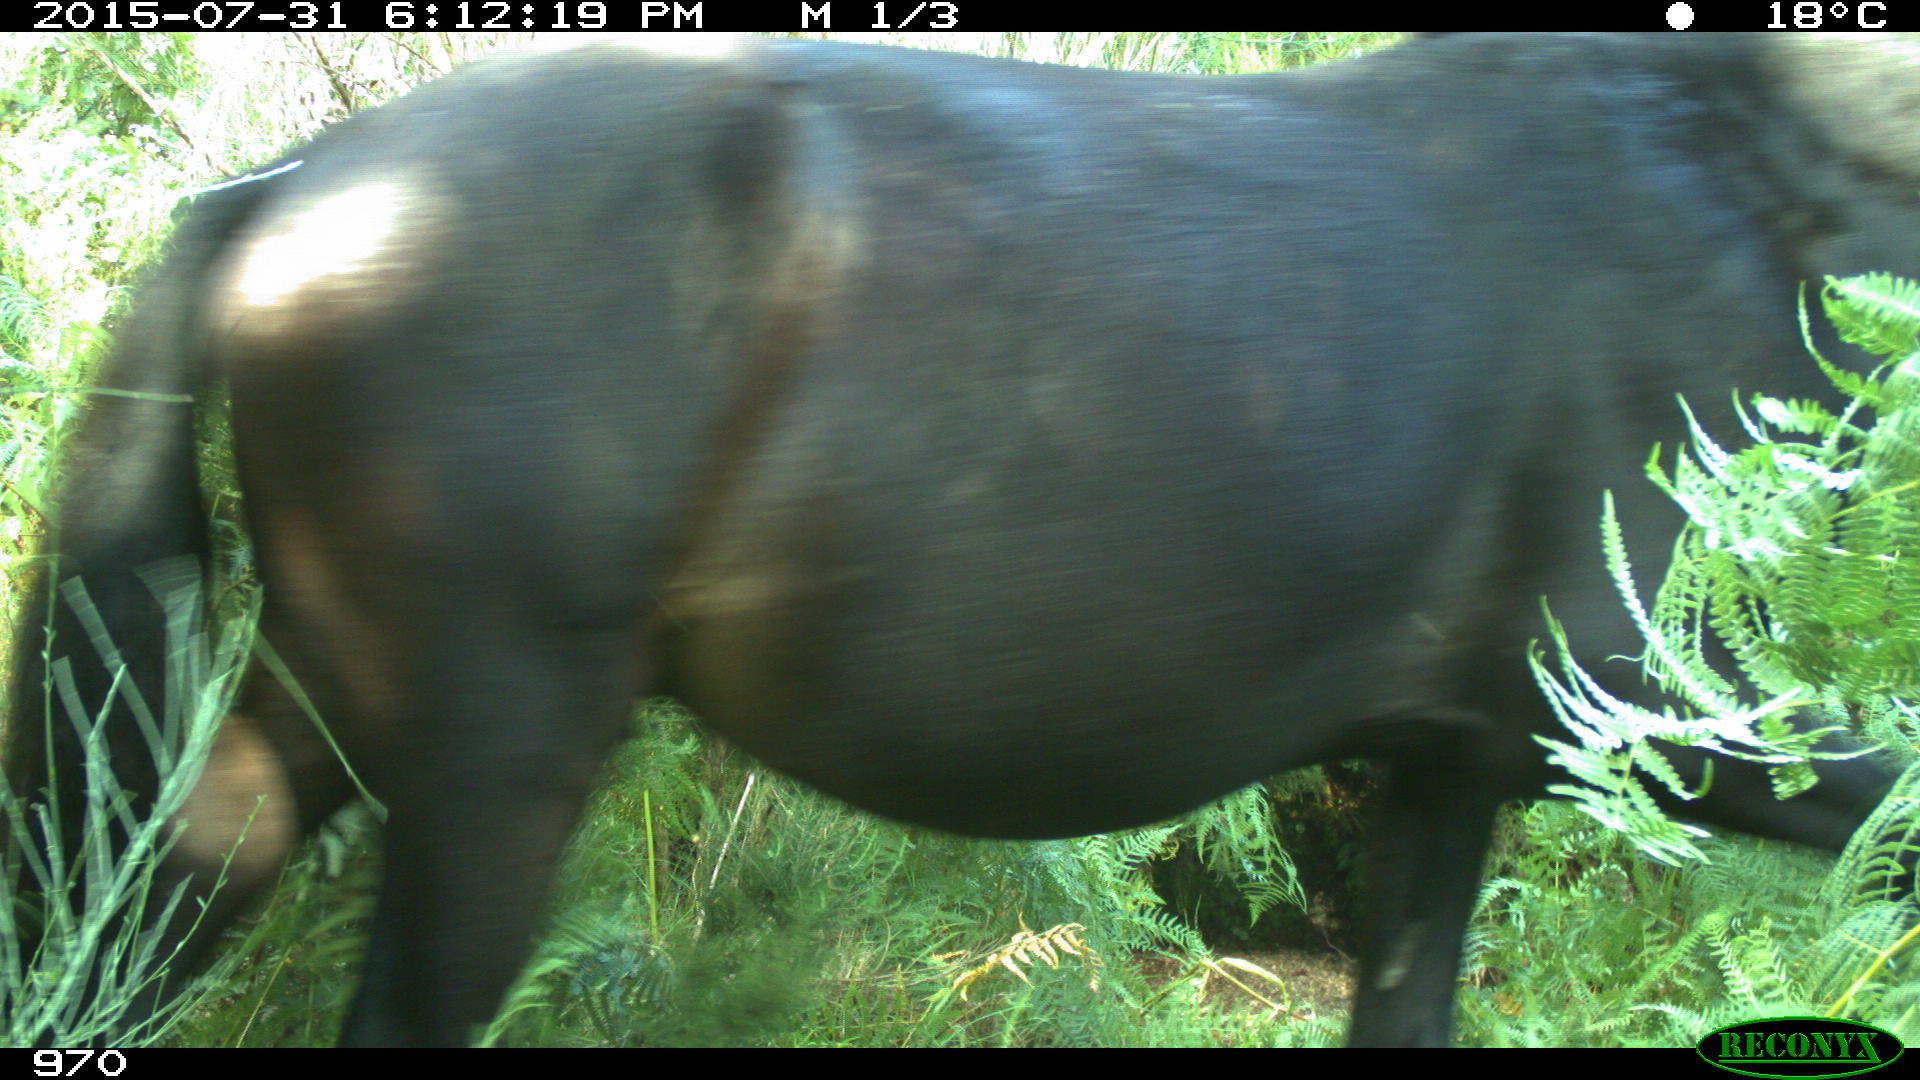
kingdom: Animalia
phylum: Chordata
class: Mammalia
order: Perissodactyla
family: Equidae
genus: Equus
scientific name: Equus caballus
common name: Horse
